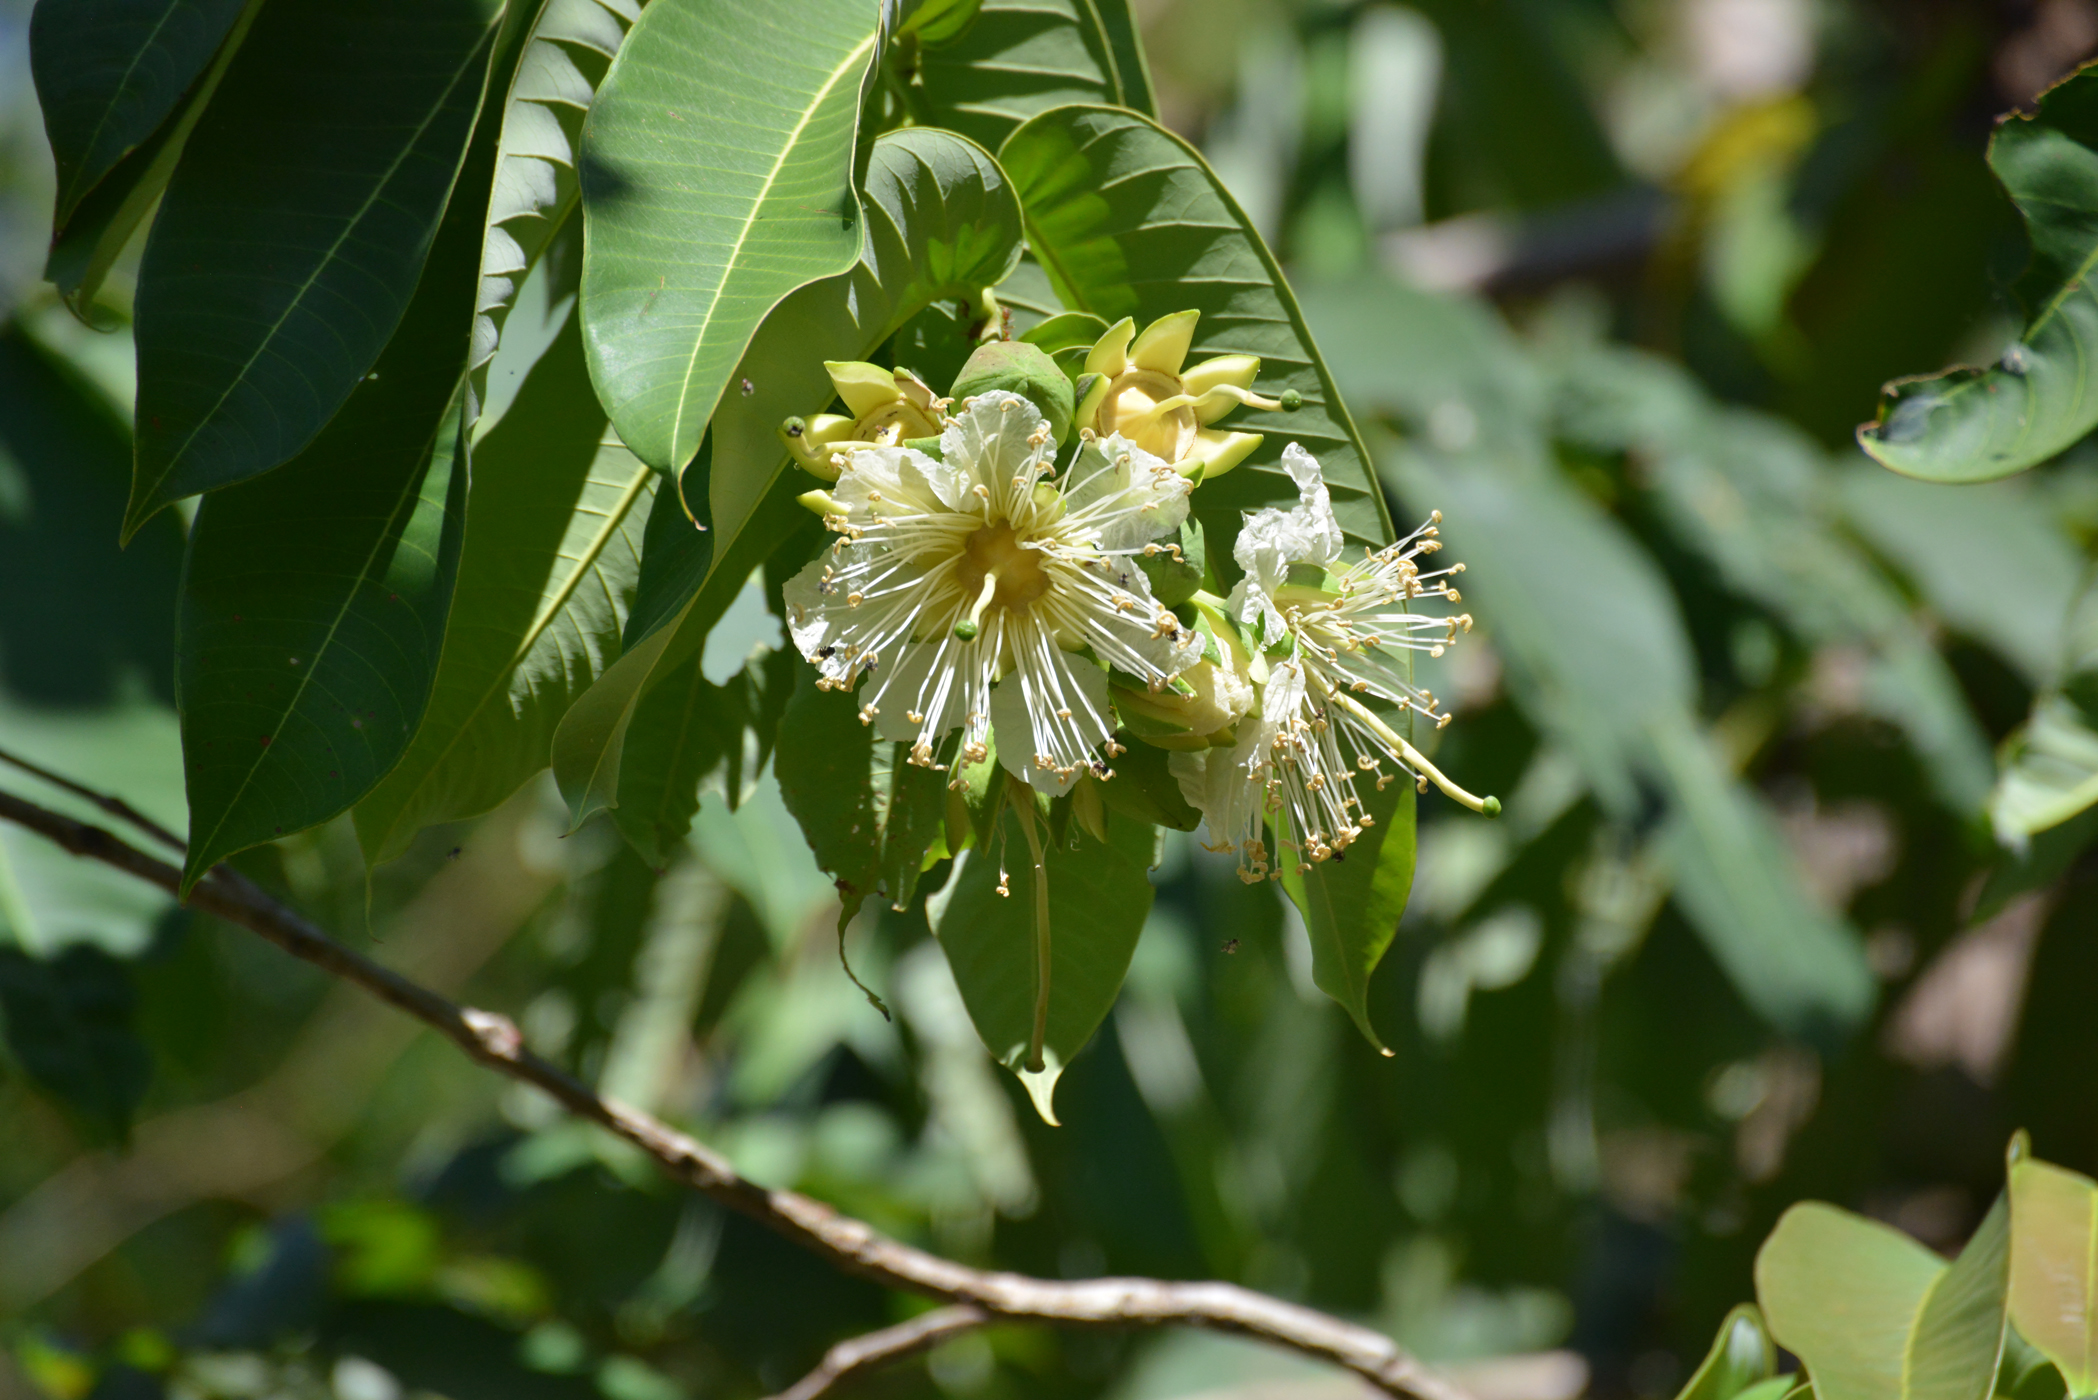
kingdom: Plantae
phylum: Tracheophyta
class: Magnoliopsida
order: Myrtales
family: Lythraceae
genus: Duabanga
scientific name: Duabanga grandiflora
